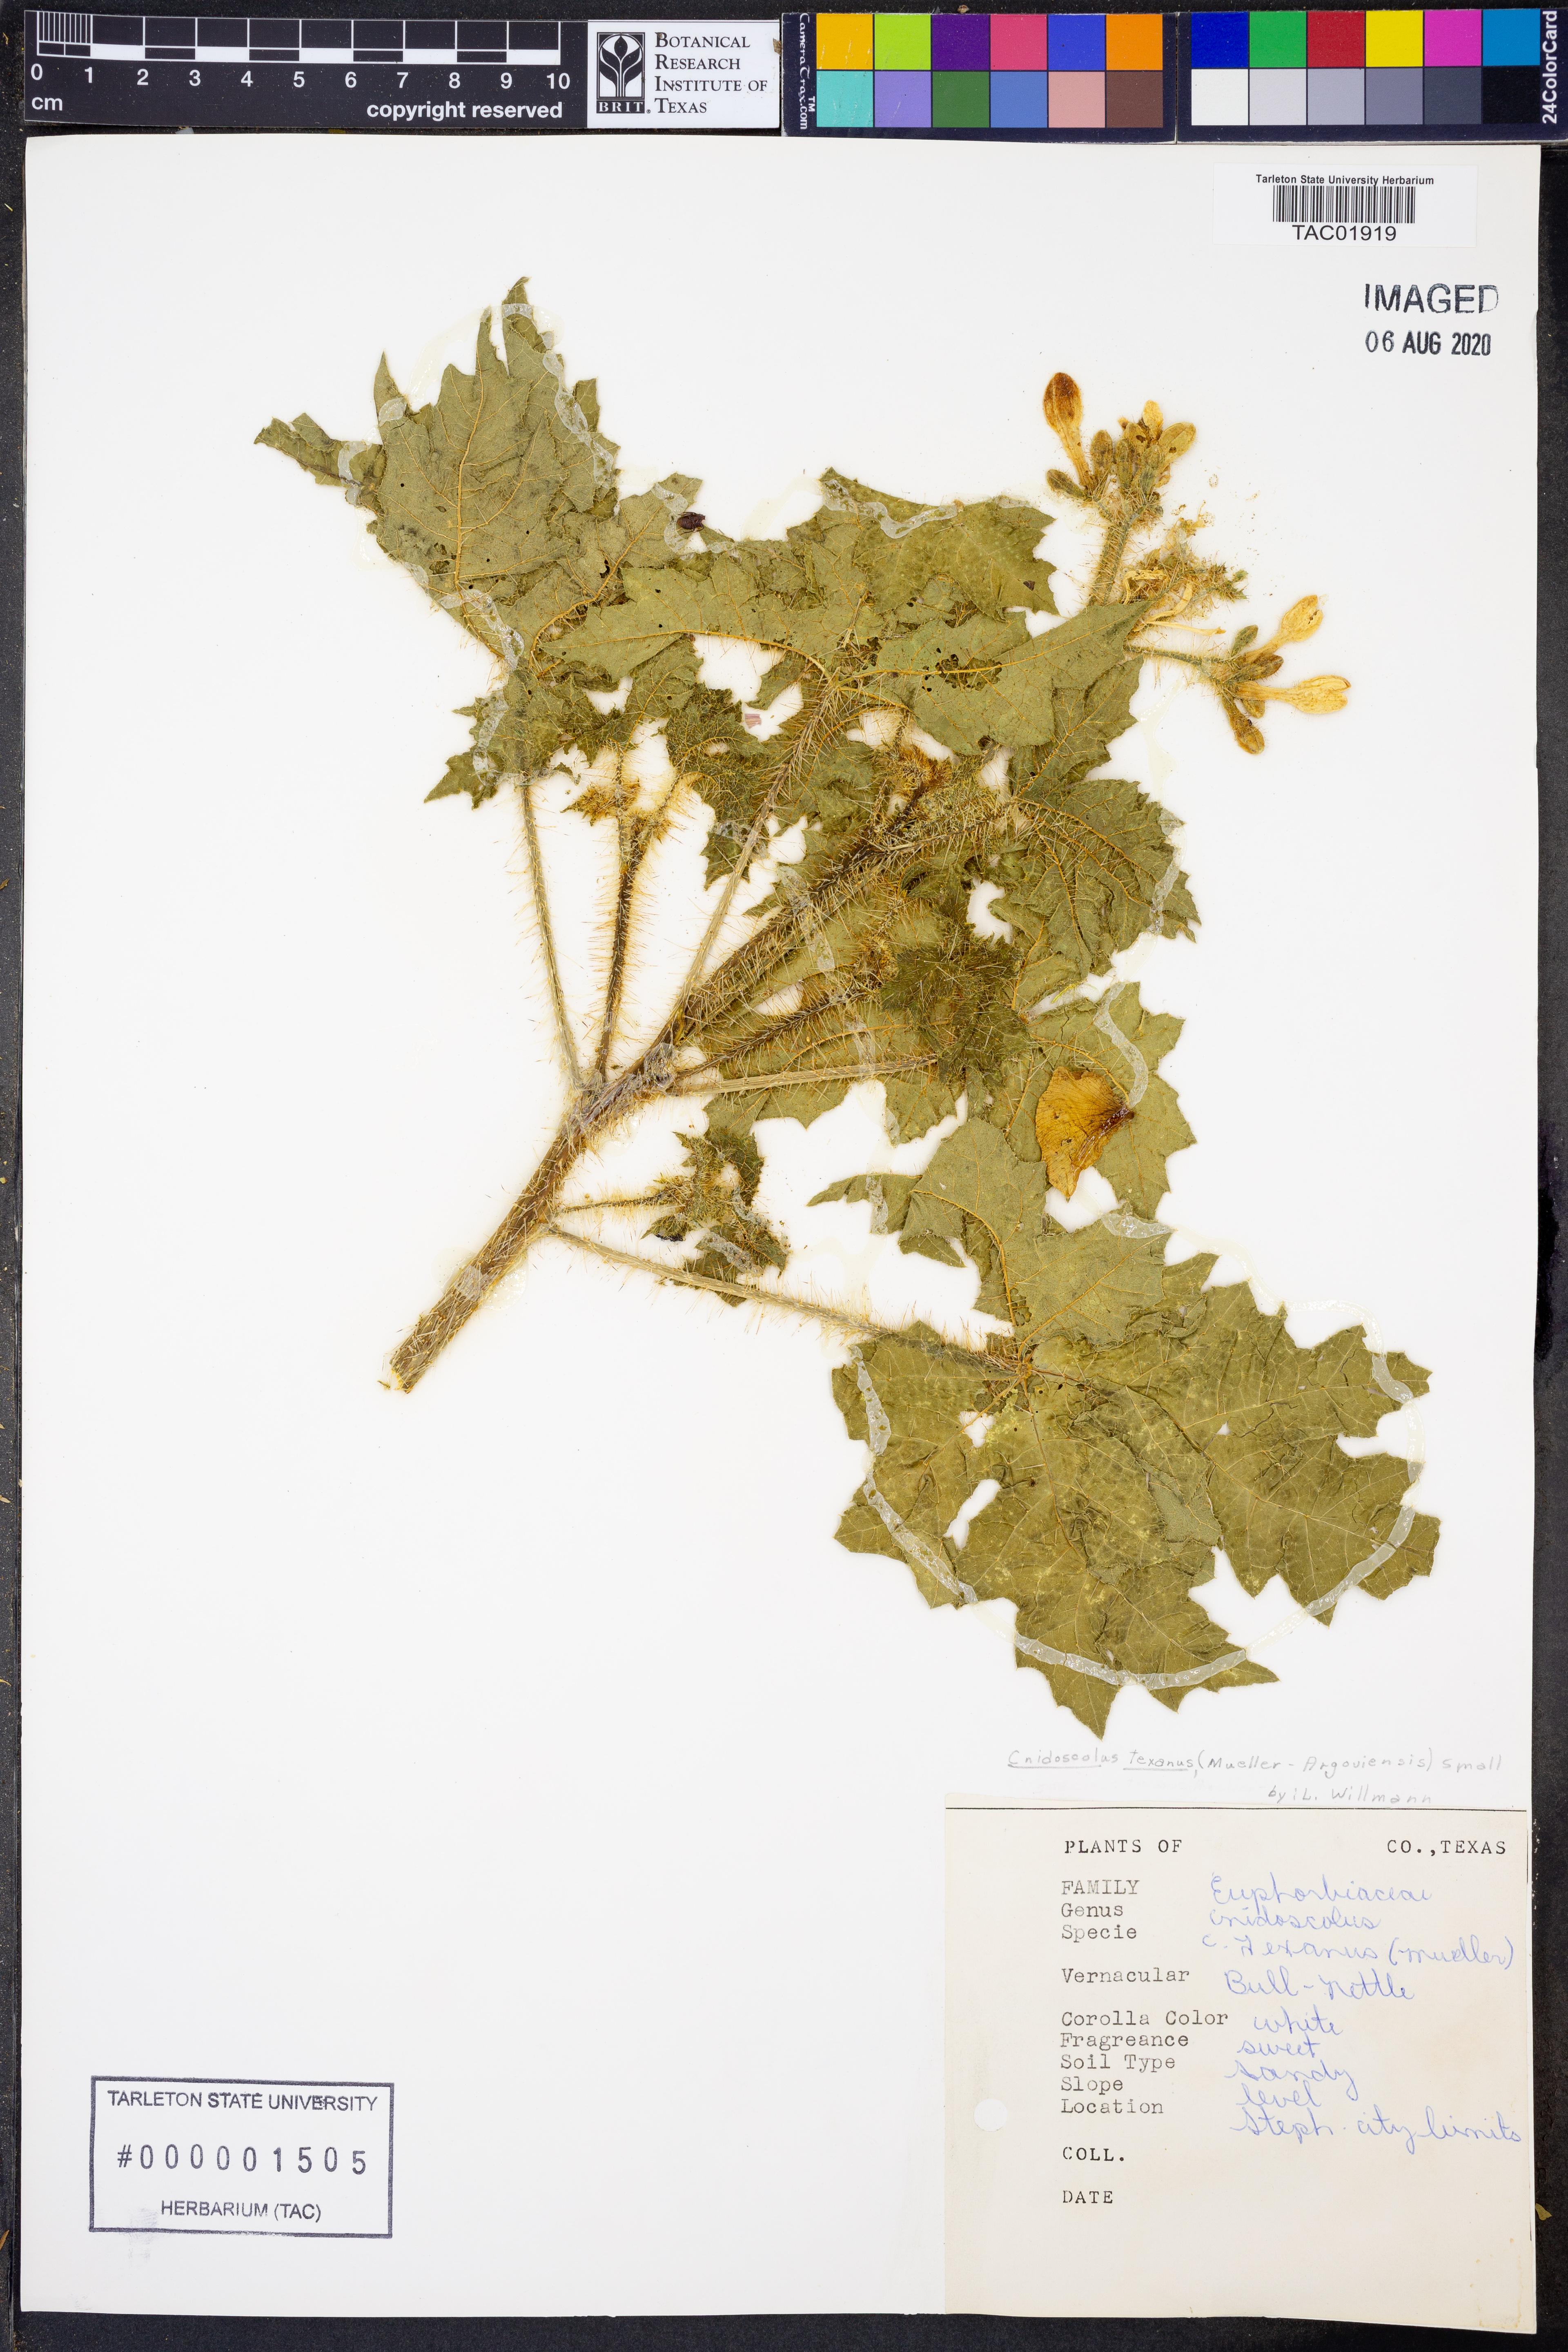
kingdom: Plantae
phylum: Tracheophyta
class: Magnoliopsida
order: Malpighiales
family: Euphorbiaceae
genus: Cnidoscolus
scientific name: Cnidoscolus texanus
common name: Texas bull-nettle
